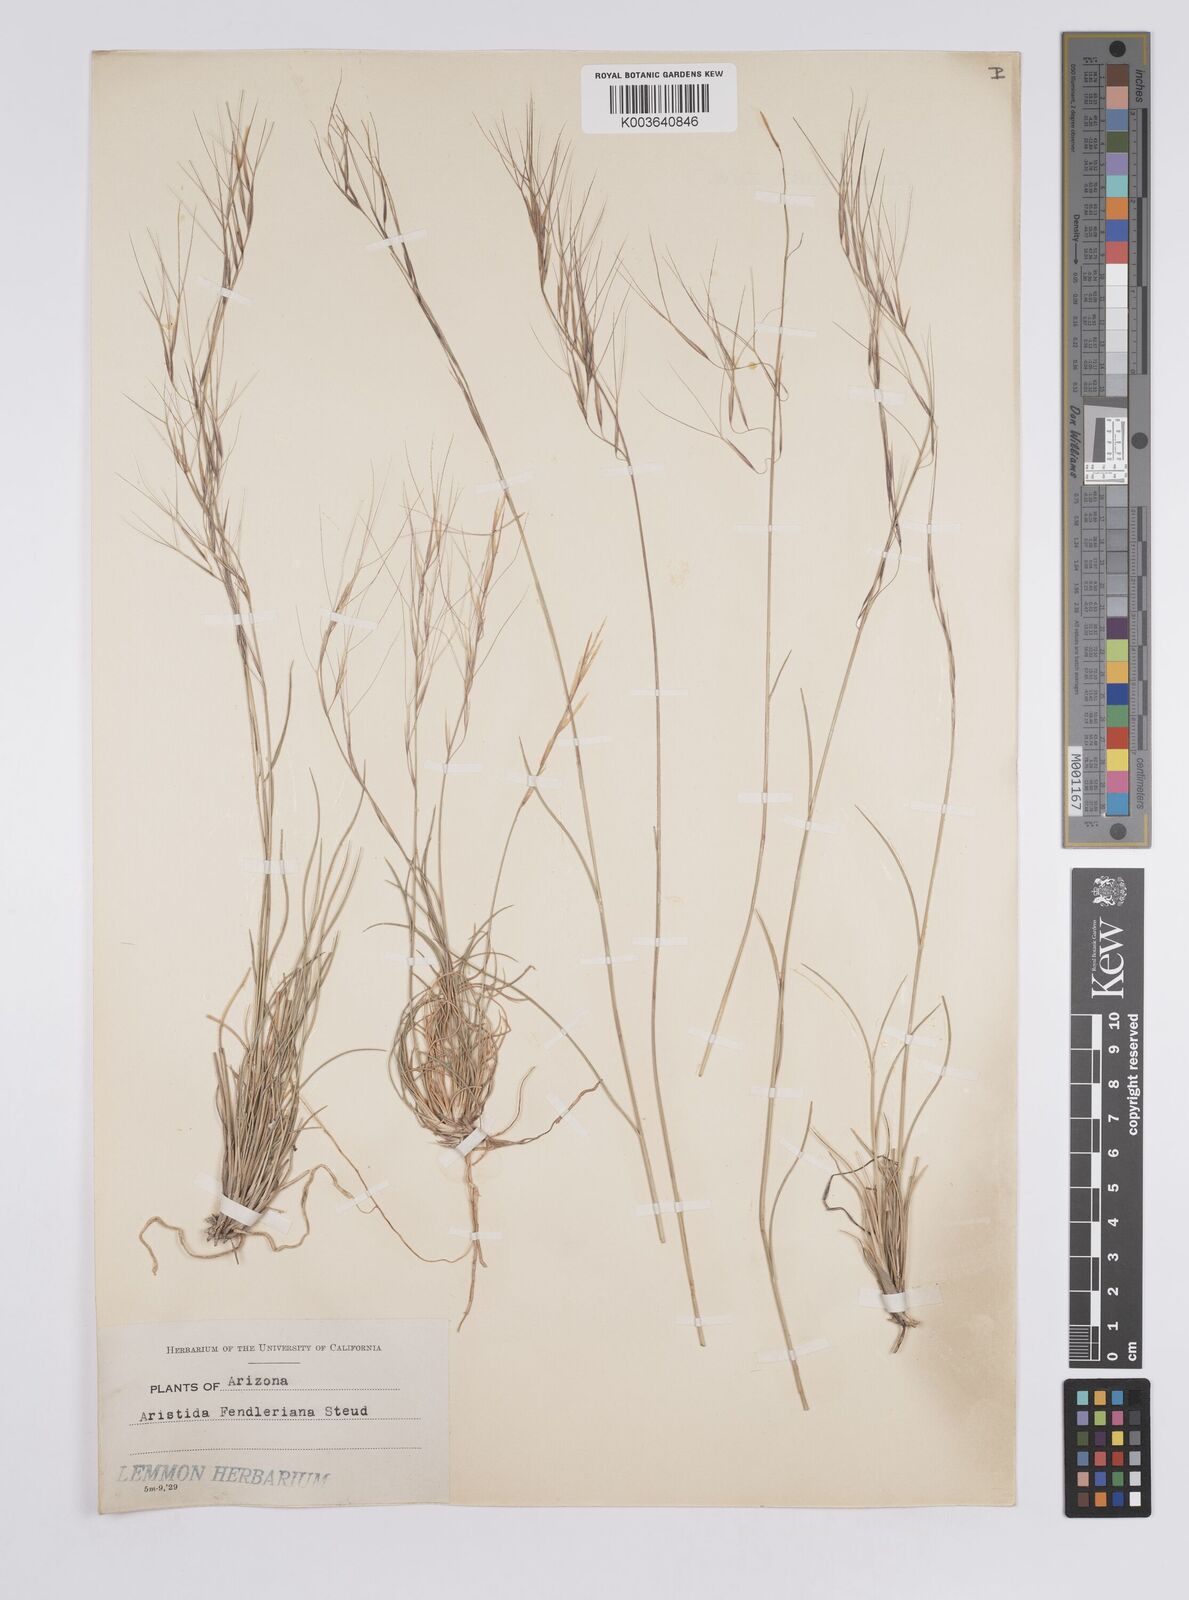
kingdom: Plantae
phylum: Tracheophyta
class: Liliopsida
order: Poales
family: Poaceae
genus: Aristida
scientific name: Aristida purpurea
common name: Purple threeawn
